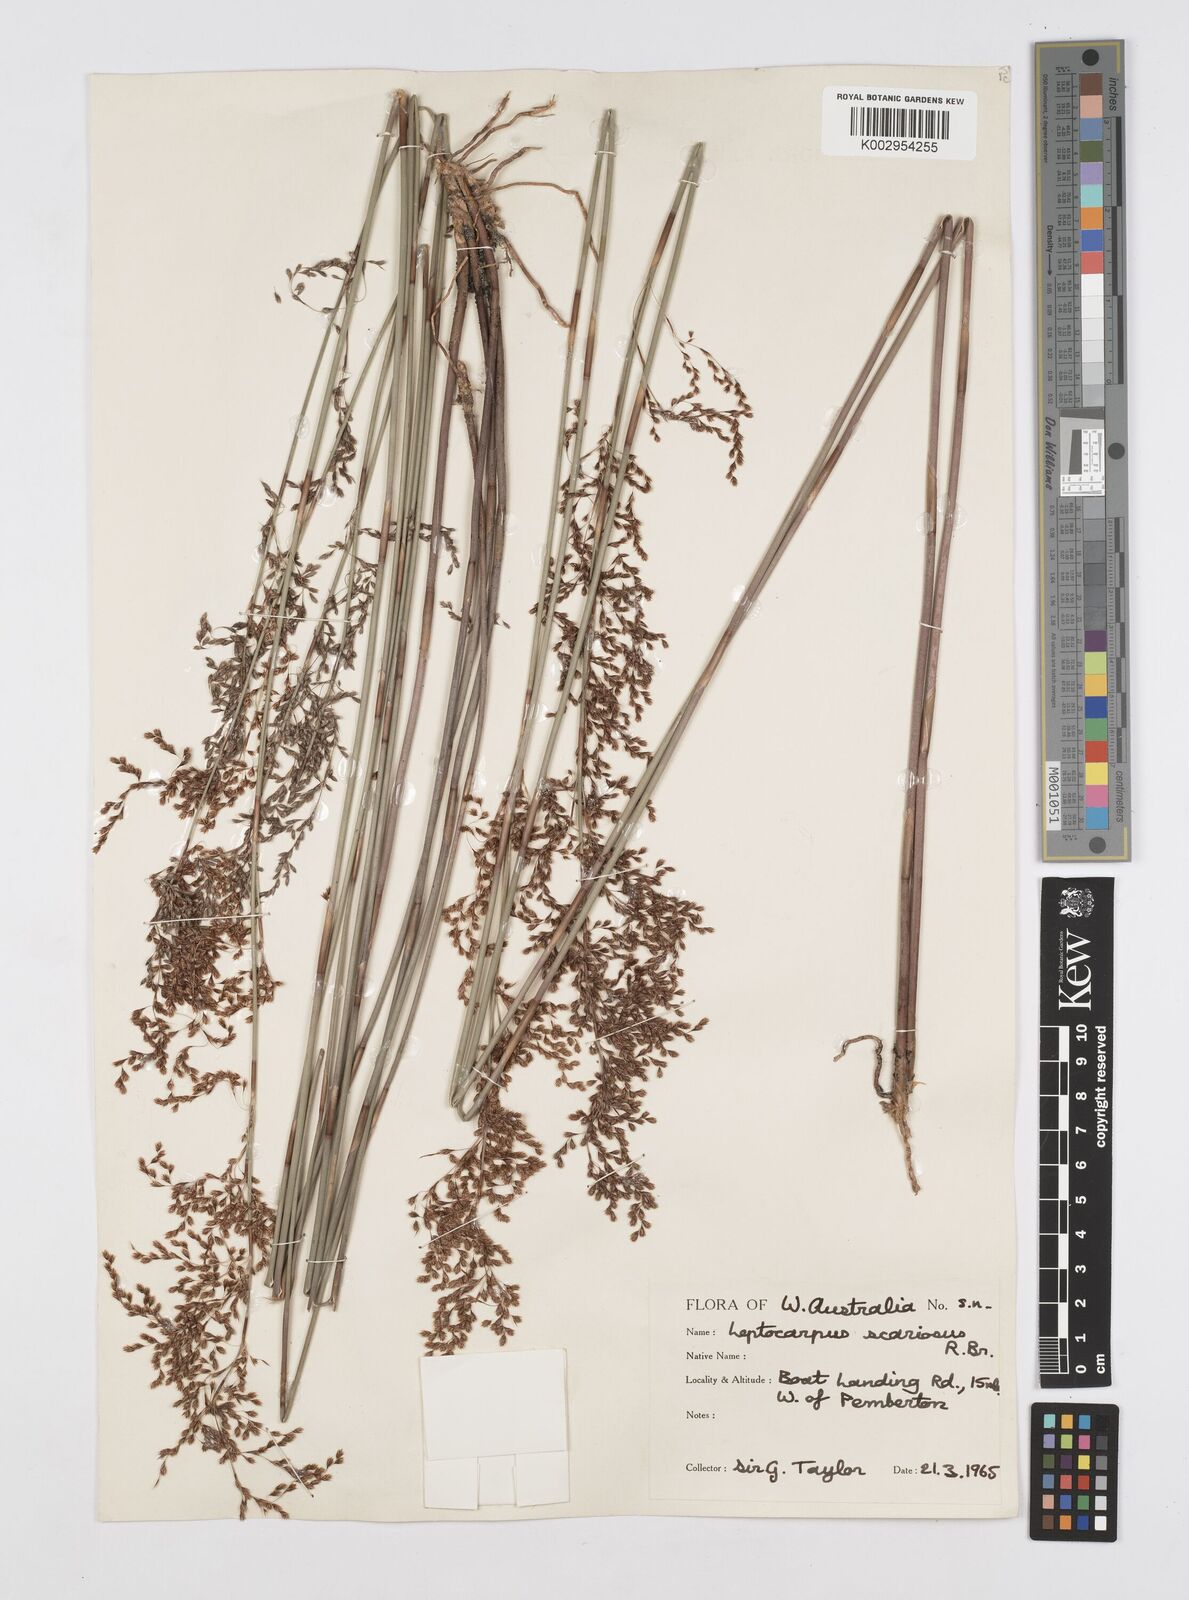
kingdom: Plantae
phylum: Tracheophyta
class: Liliopsida
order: Poales
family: Restionaceae
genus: Leptocarpus
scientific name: Leptocarpus scariosus
